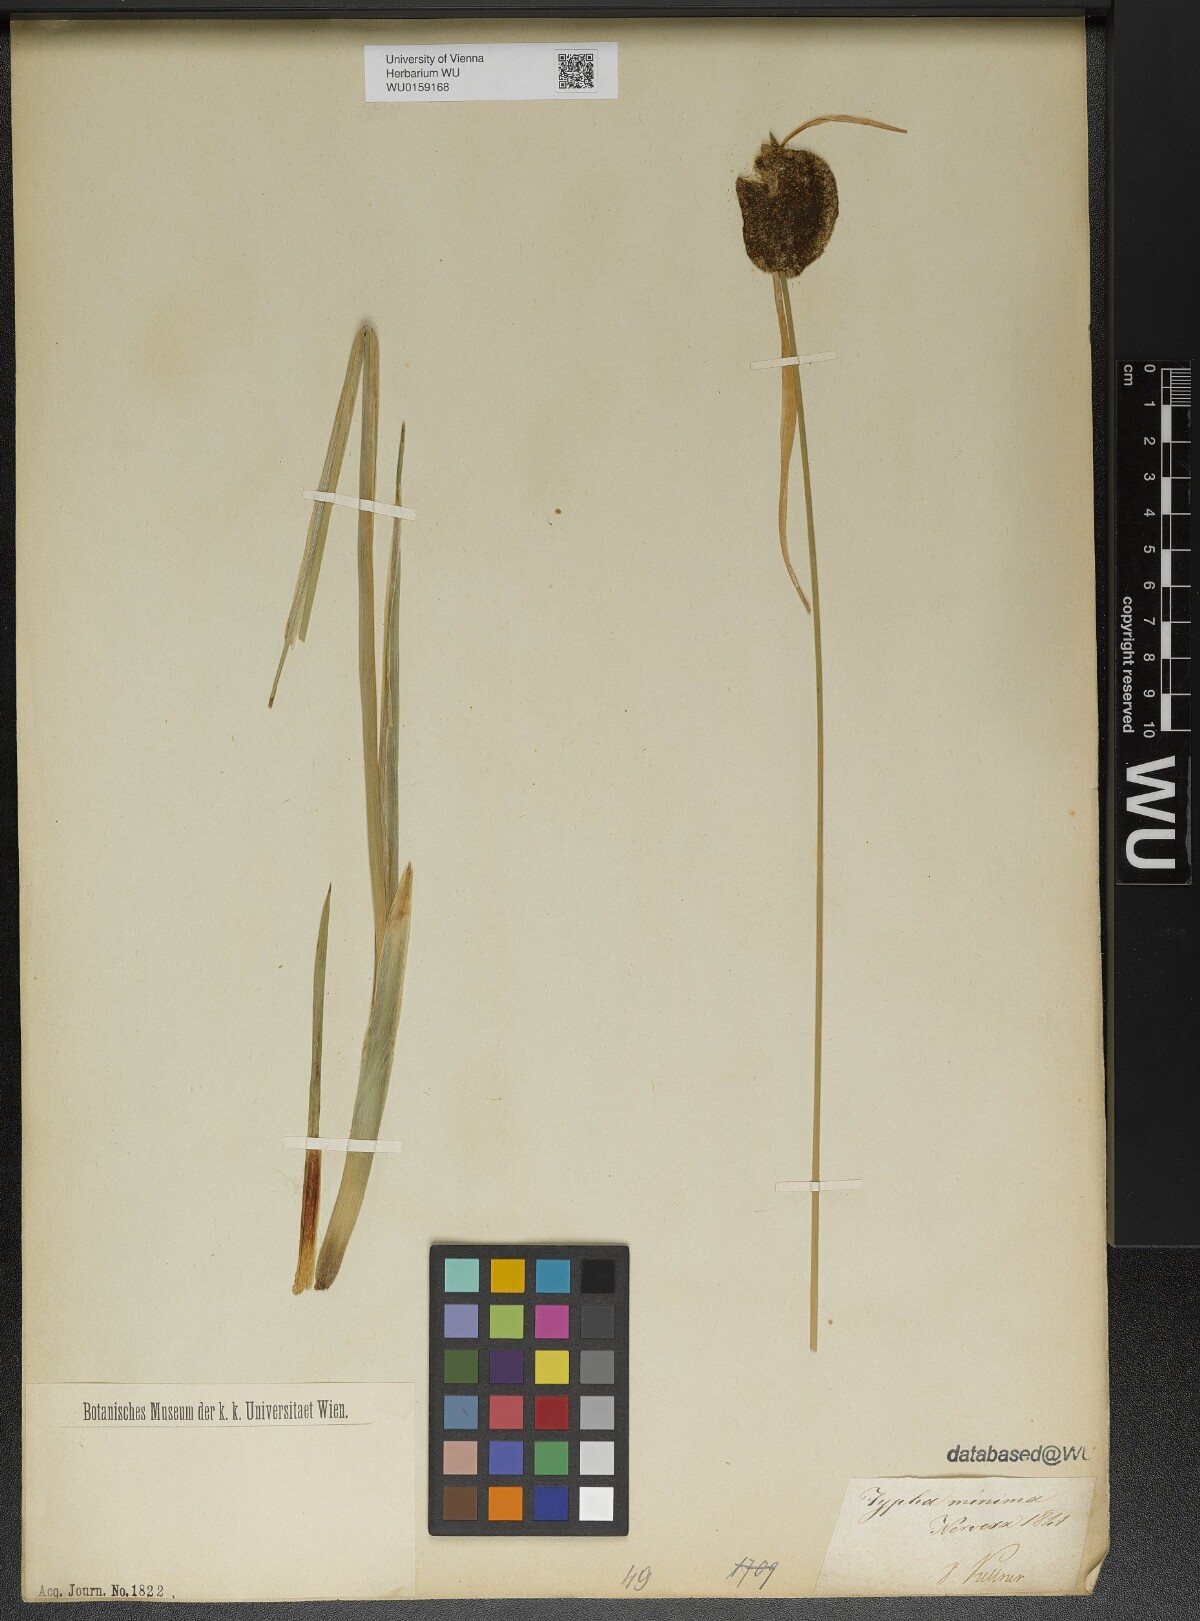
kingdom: Plantae
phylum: Tracheophyta
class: Liliopsida
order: Poales
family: Typhaceae
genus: Typha
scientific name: Typha minima
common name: Dwarf bulrush
